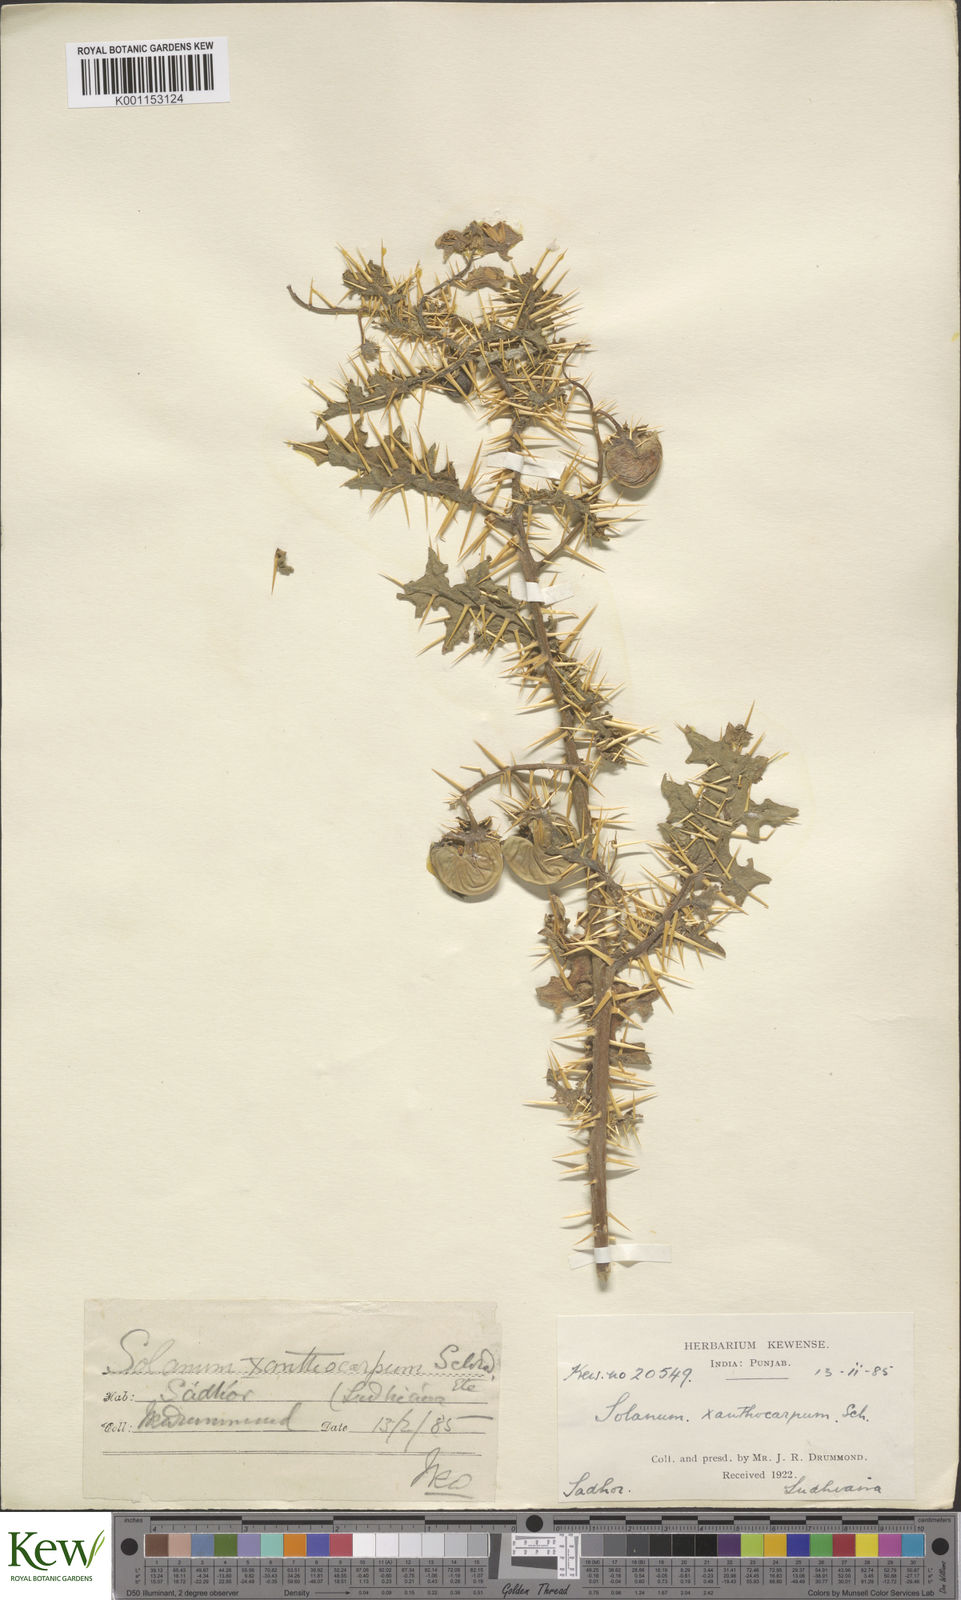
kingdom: Plantae
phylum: Tracheophyta
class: Magnoliopsida
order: Solanales
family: Solanaceae
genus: Solanum
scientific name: Solanum virginianum
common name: Surattense nightshade
